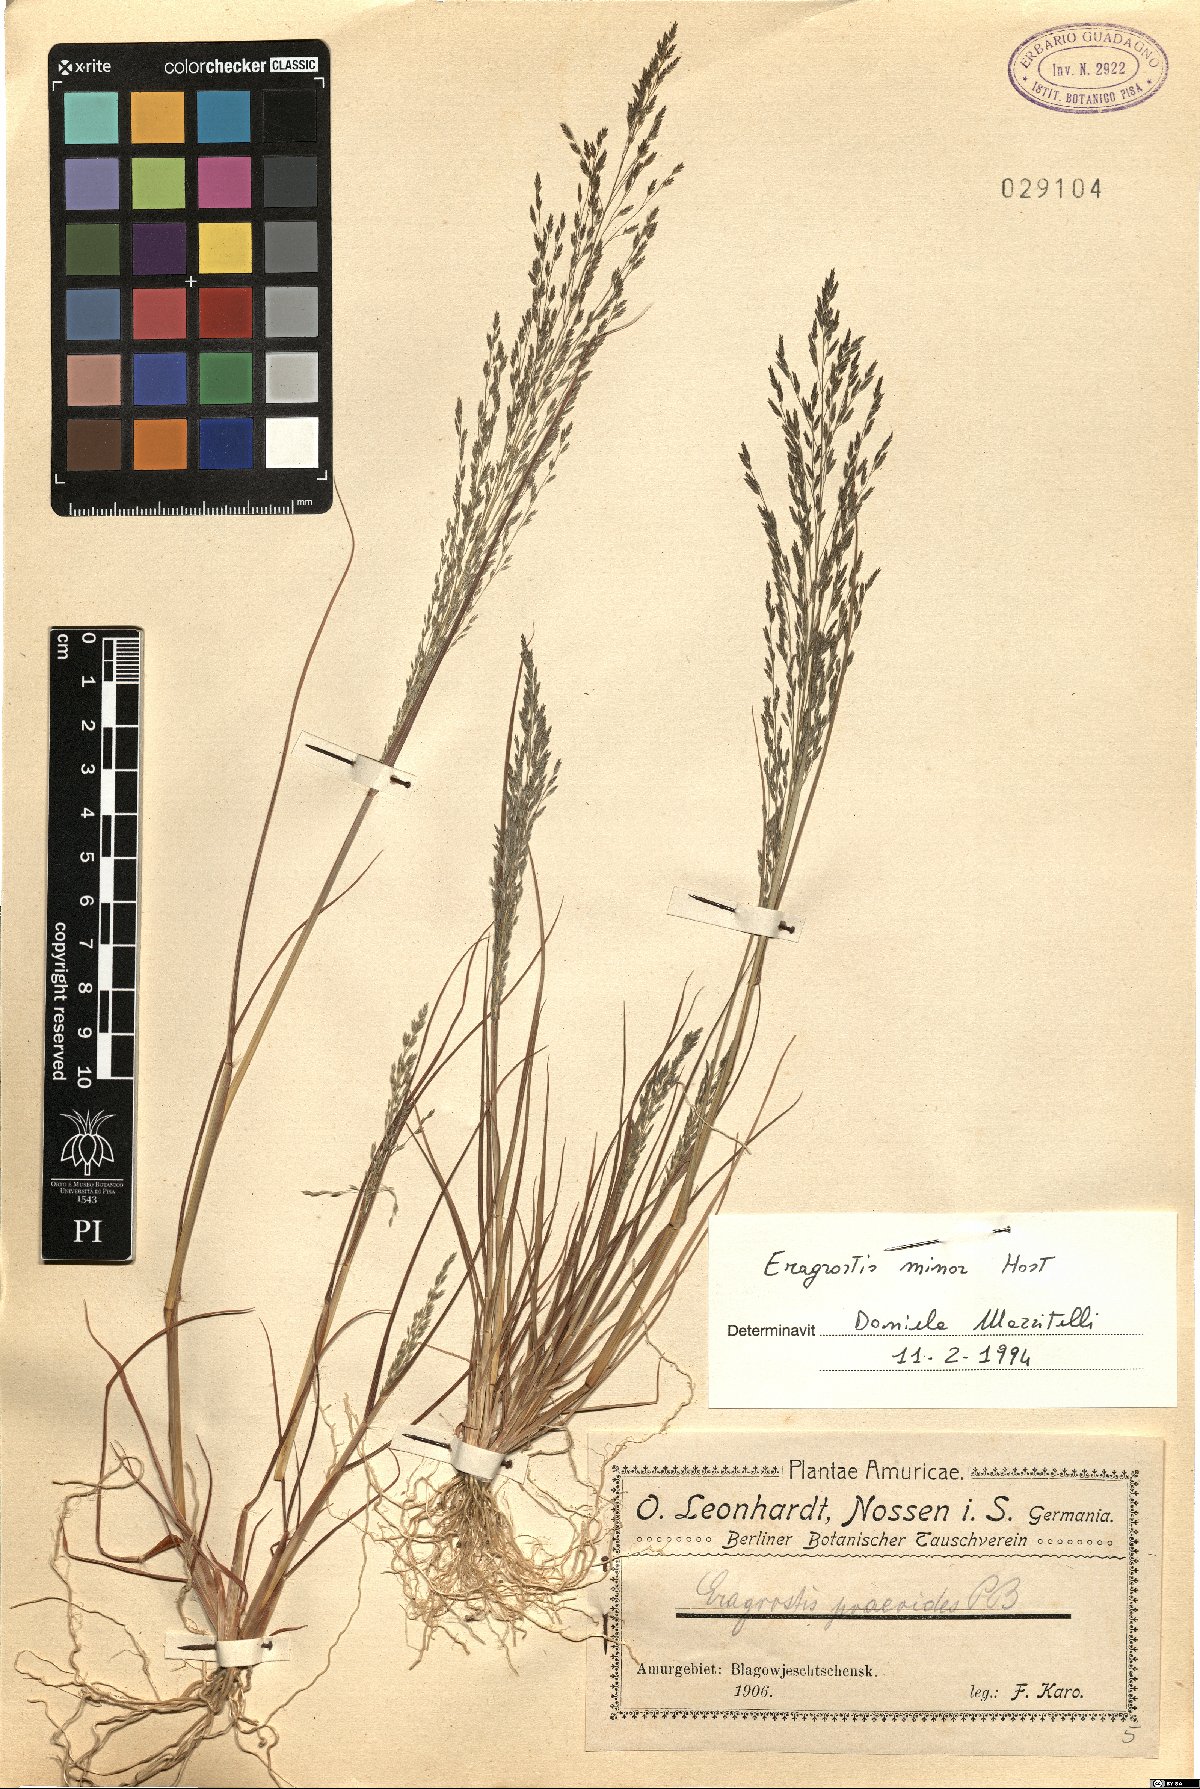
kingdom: Plantae
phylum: Tracheophyta
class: Liliopsida
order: Poales
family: Poaceae
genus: Eragrostis
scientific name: Eragrostis minor
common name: Small love-grass
